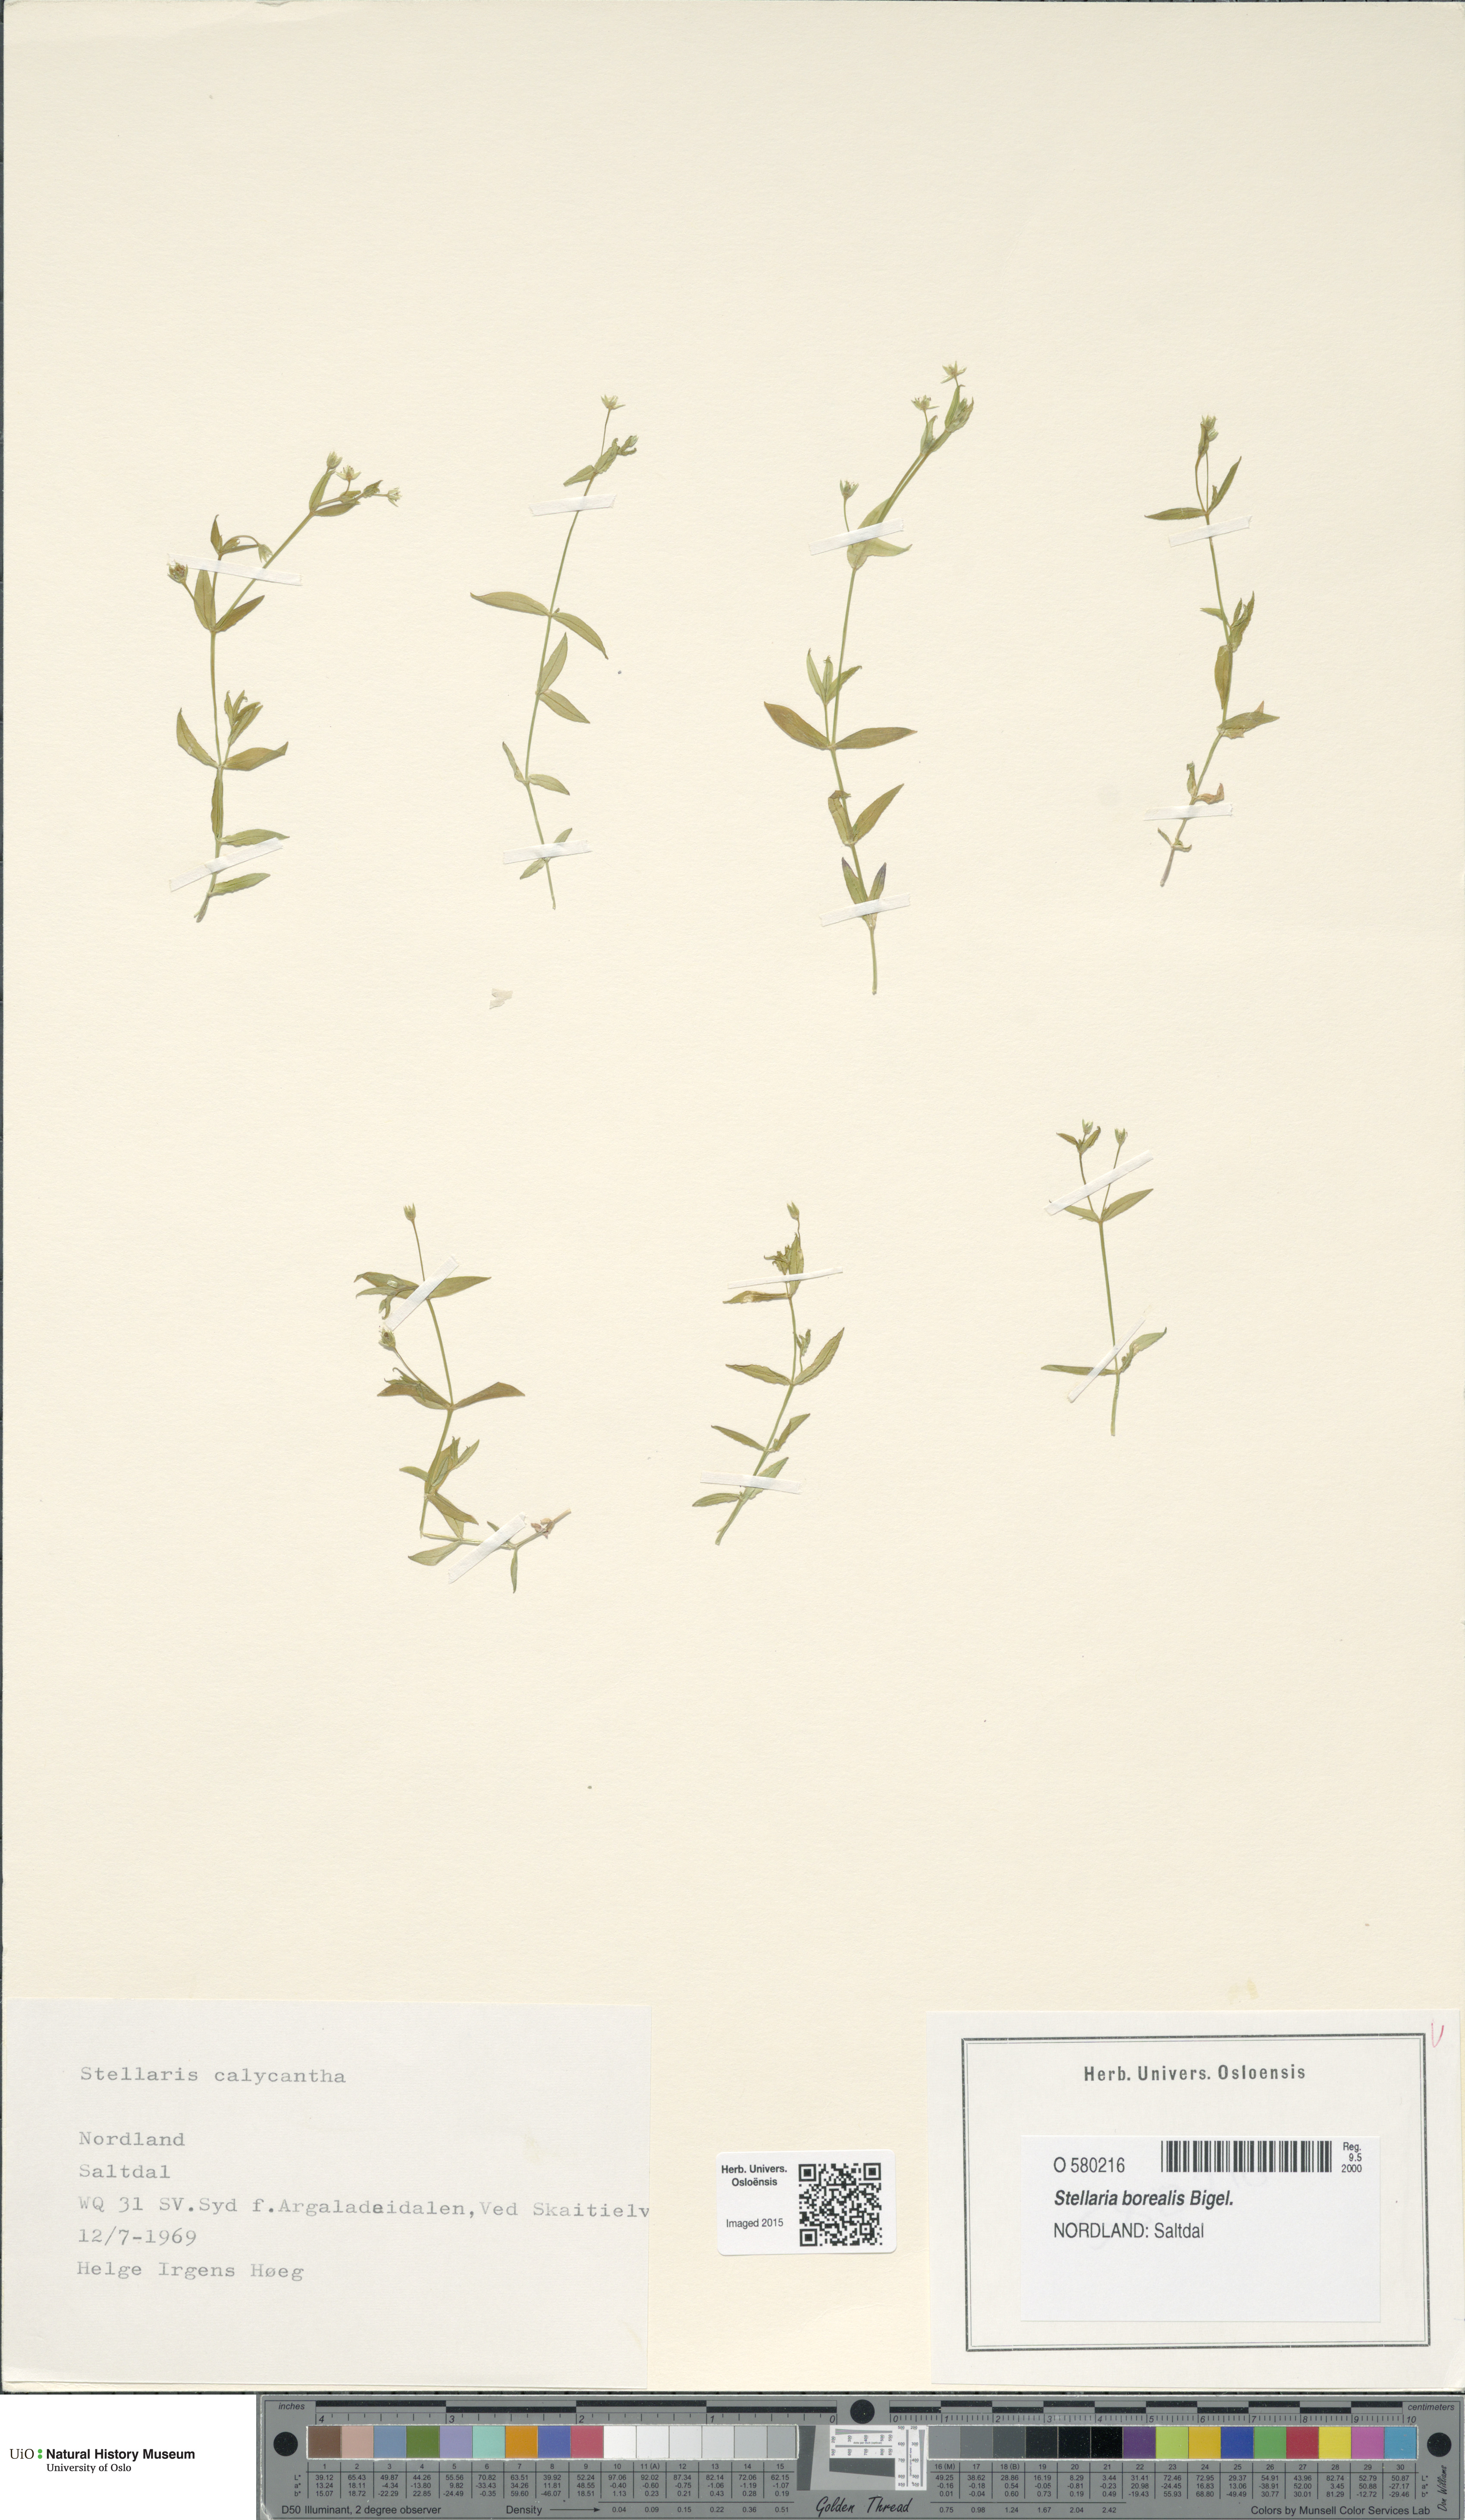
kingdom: Plantae
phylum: Tracheophyta
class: Magnoliopsida
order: Caryophyllales
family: Caryophyllaceae
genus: Stellaria
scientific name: Stellaria borealis
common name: Boreal starwort
